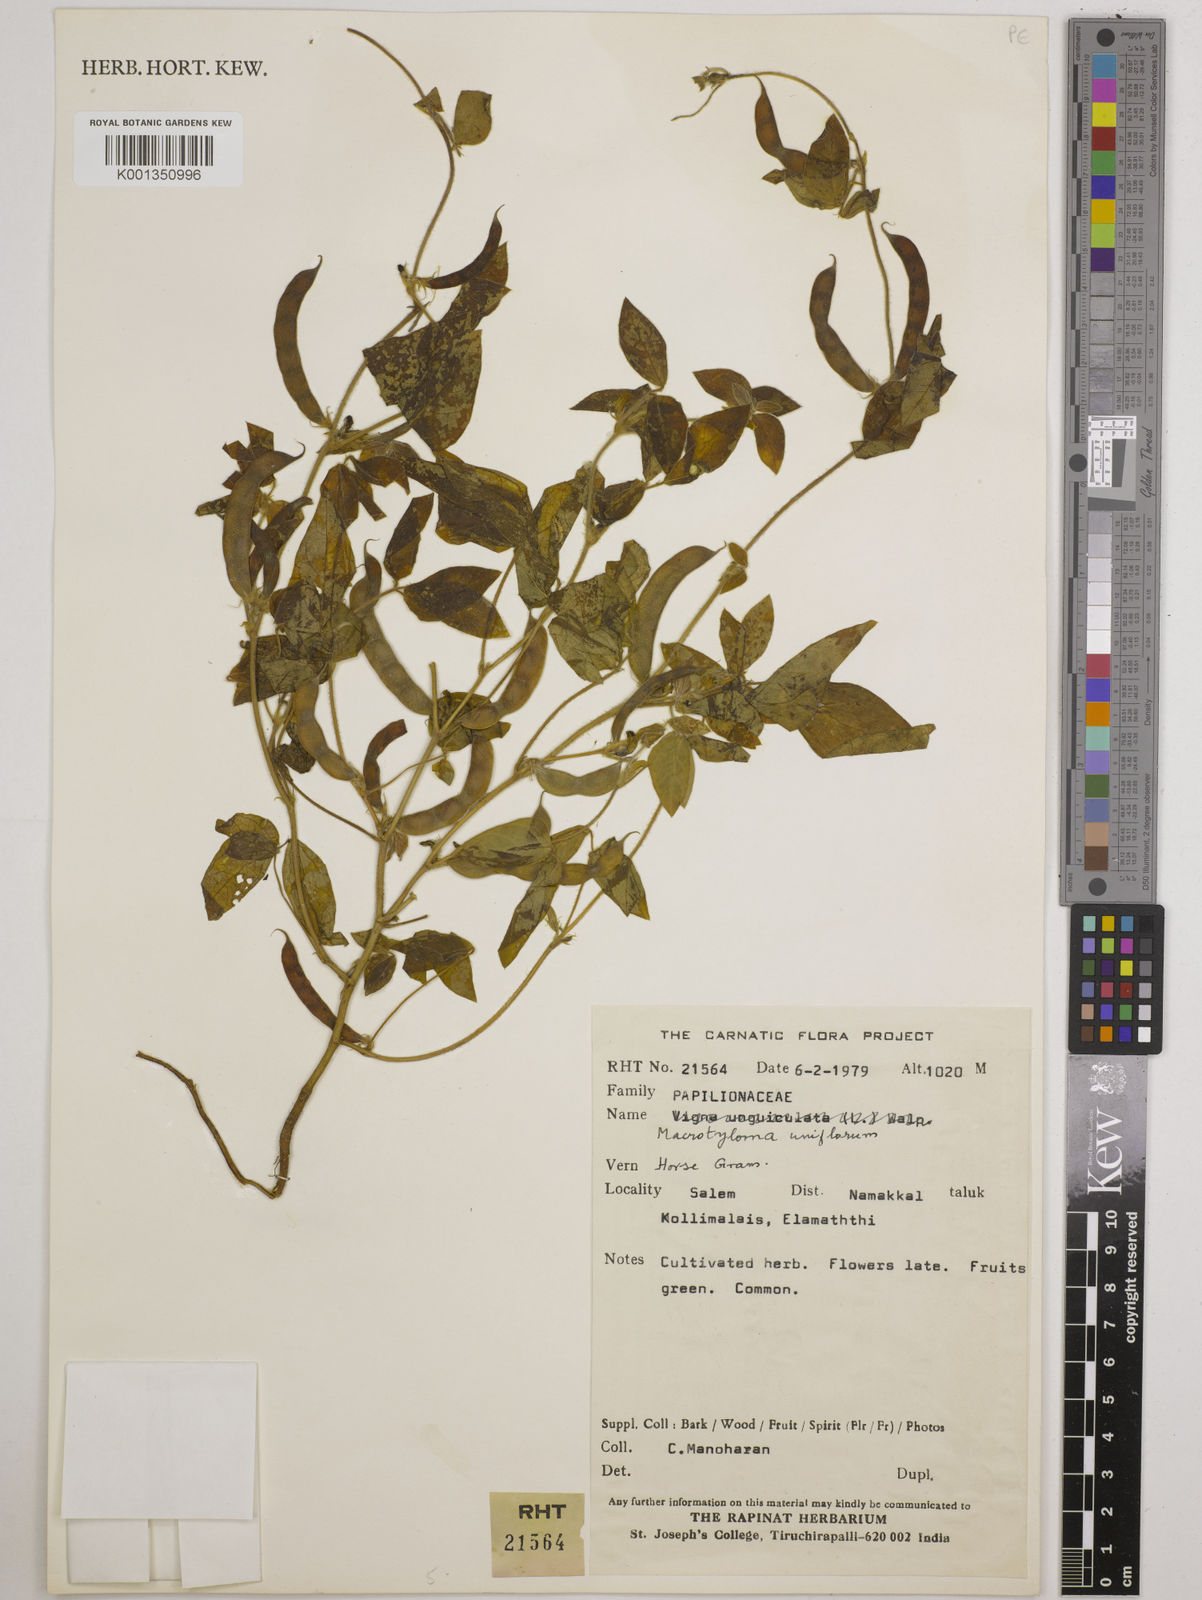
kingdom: Plantae
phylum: Tracheophyta
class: Magnoliopsida
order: Fabales
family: Fabaceae
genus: Macrotyloma
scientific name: Macrotyloma uniflorum
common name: Horse gram
